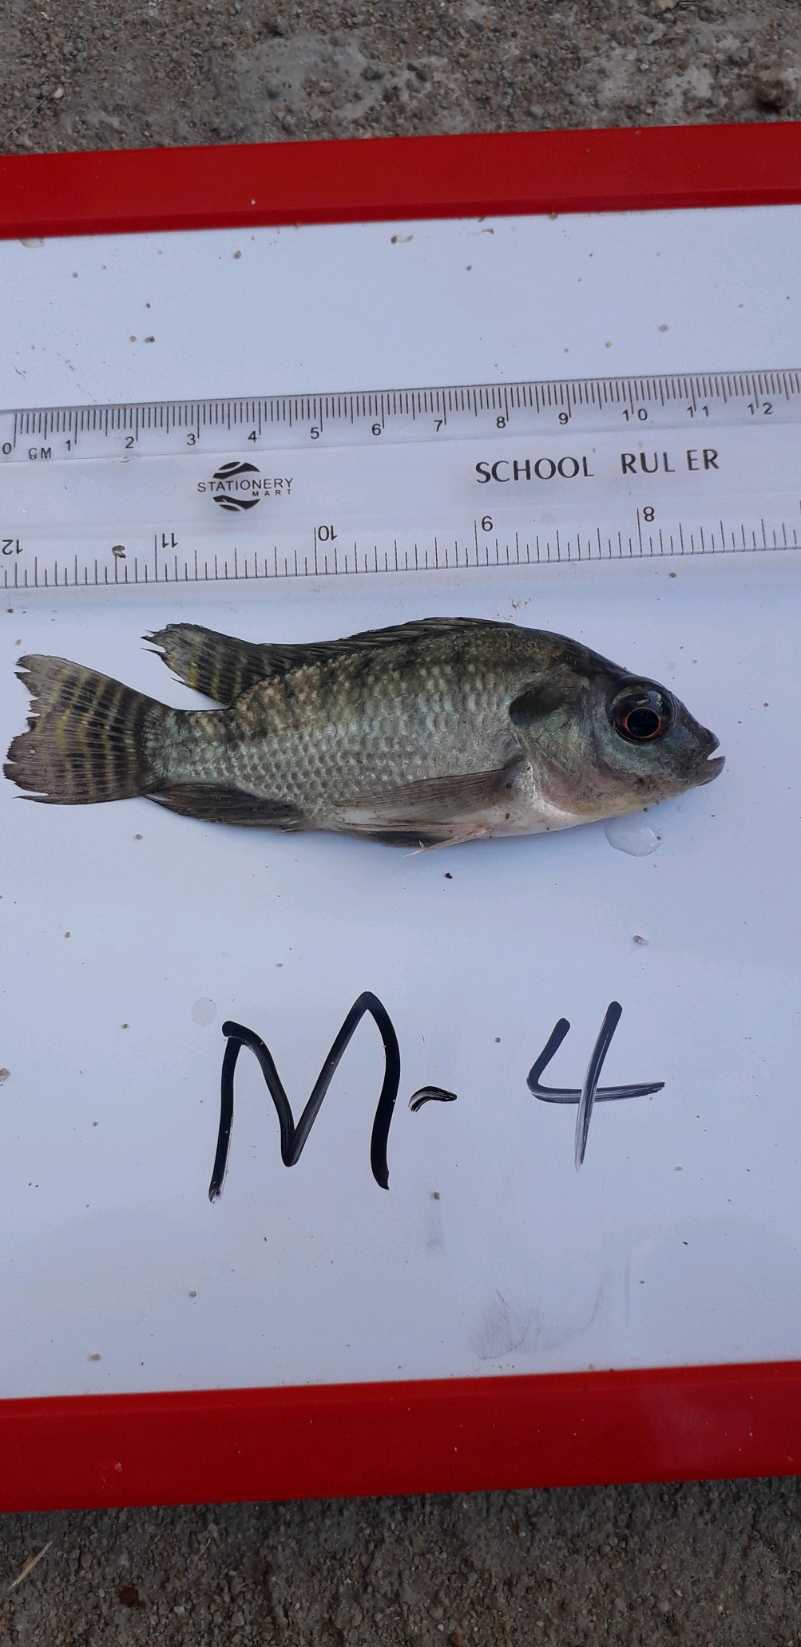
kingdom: Animalia
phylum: Chordata
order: Perciformes
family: Cichlidae
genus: Oreochromis
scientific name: Oreochromis niloticus
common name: Nile tilapia
